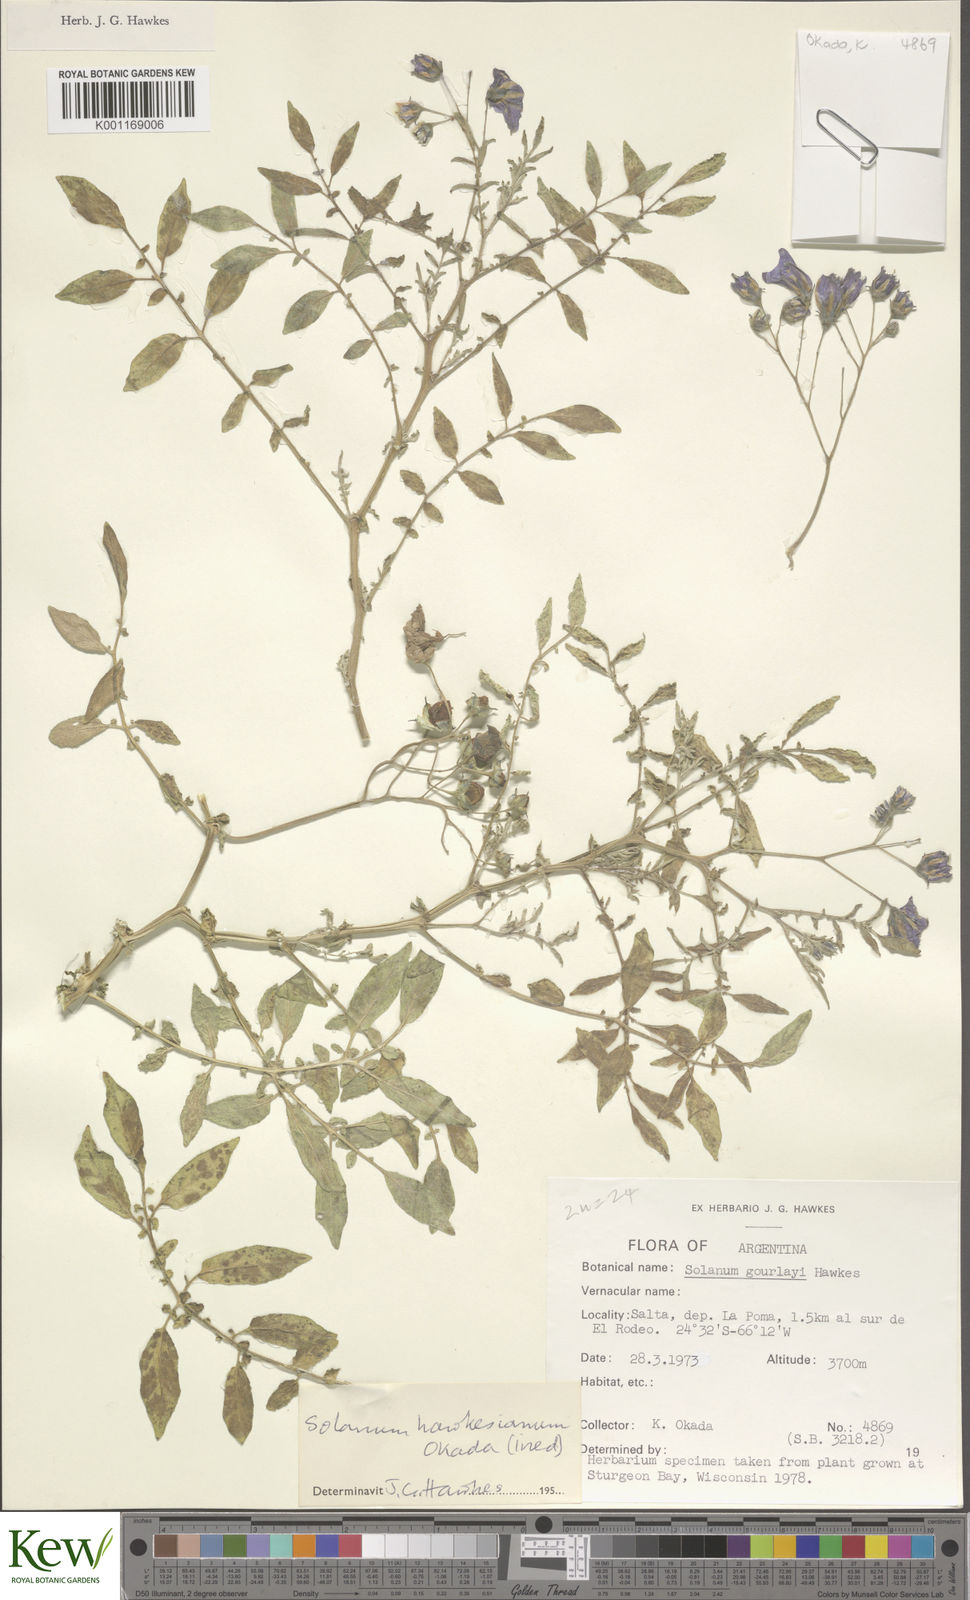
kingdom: Plantae
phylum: Tracheophyta
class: Magnoliopsida
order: Solanales
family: Solanaceae
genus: Solanum
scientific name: Solanum
